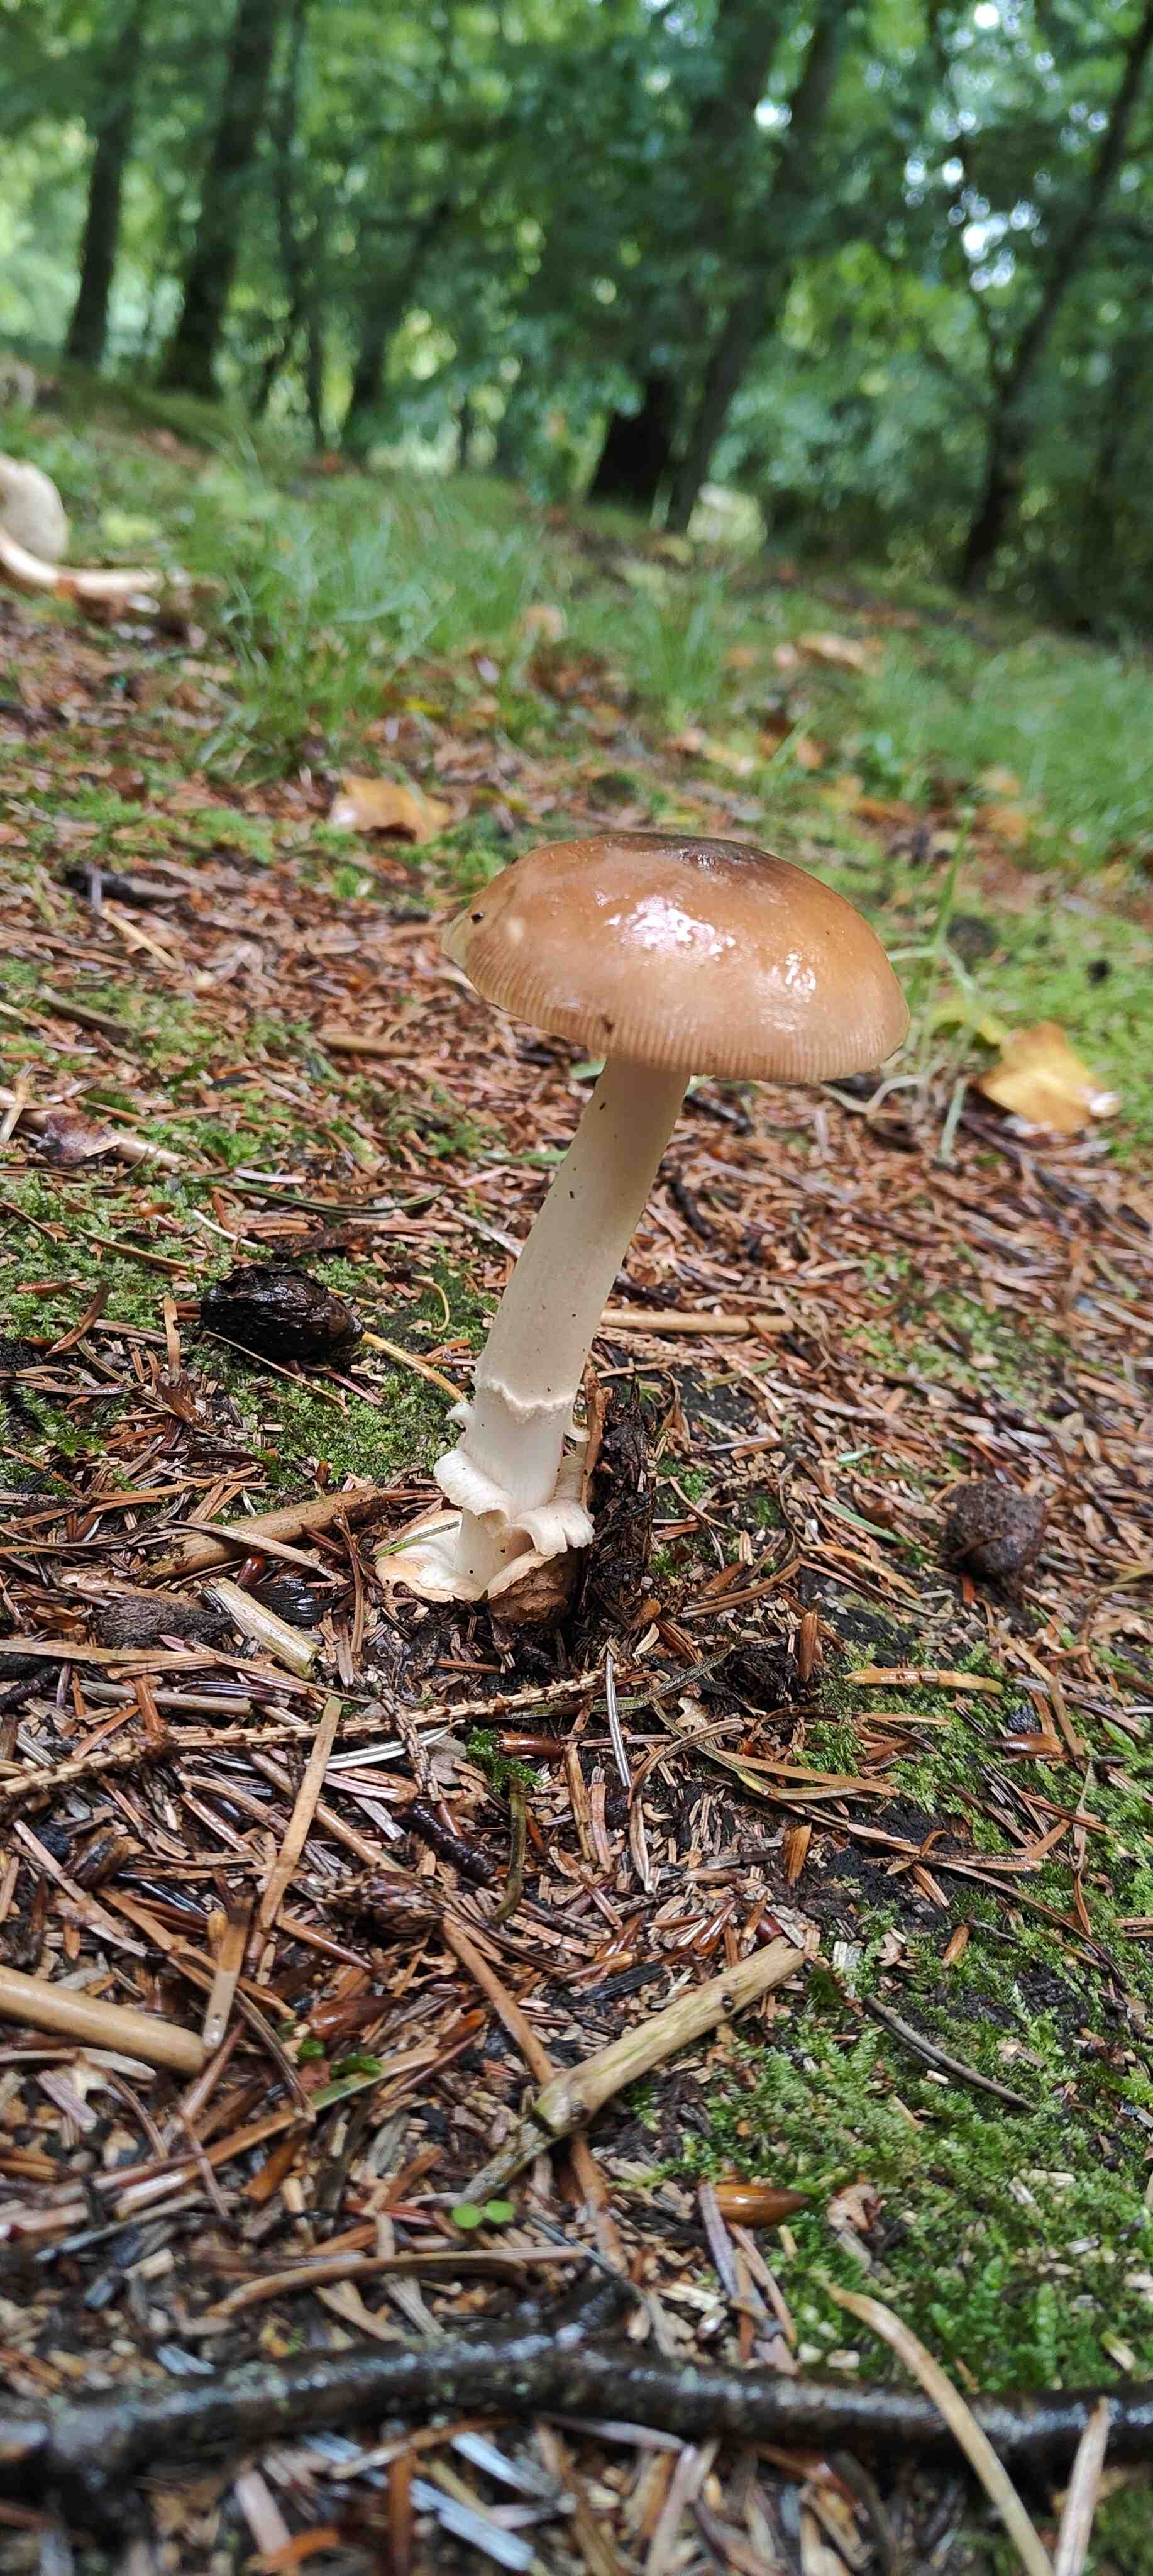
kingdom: Fungi
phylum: Basidiomycota
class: Agaricomycetes
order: Agaricales
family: Amanitaceae
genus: Amanita
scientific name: Amanita fulva
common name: brun kam-fluesvamp
